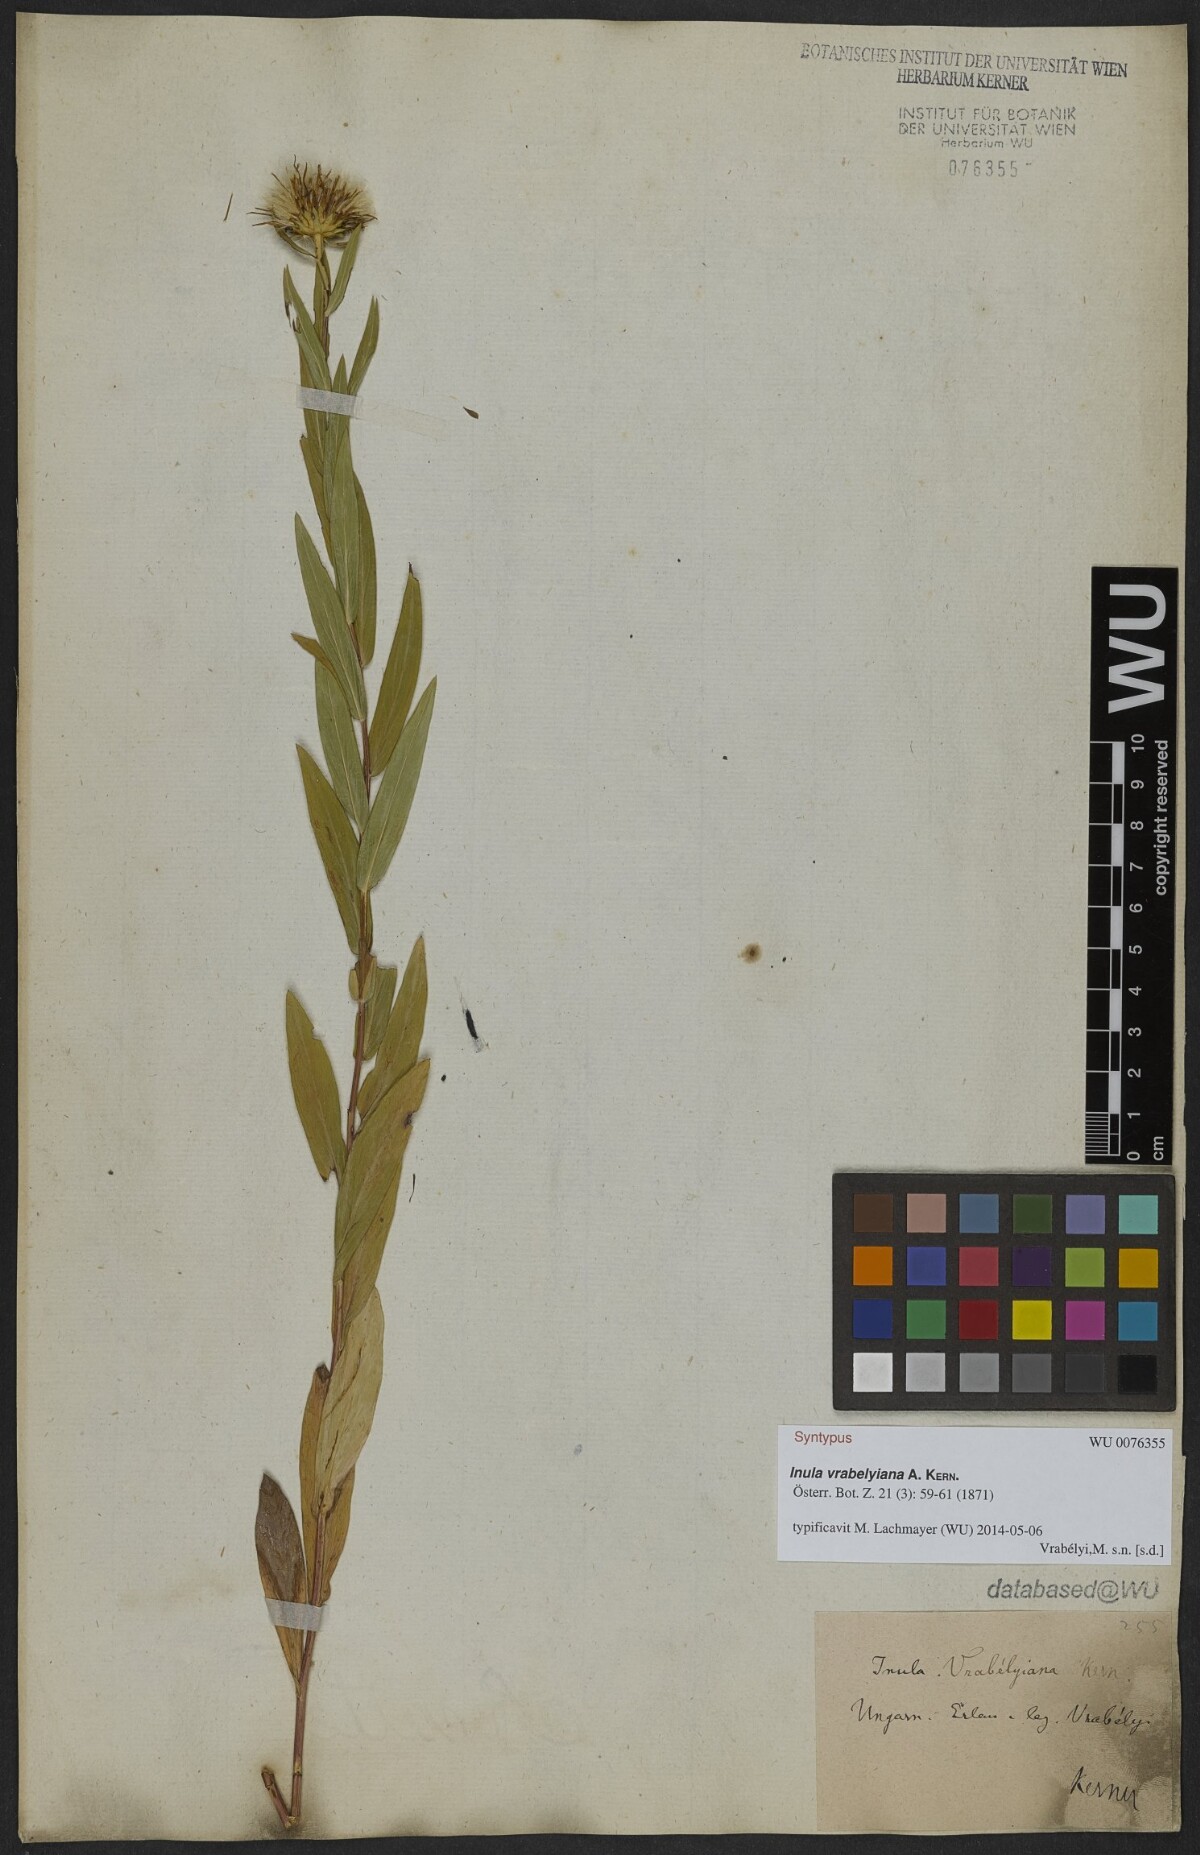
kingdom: Plantae
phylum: Tracheophyta
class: Magnoliopsida
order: Asterales
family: Asteraceae
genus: Pentanema
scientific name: Pentanema strictum
